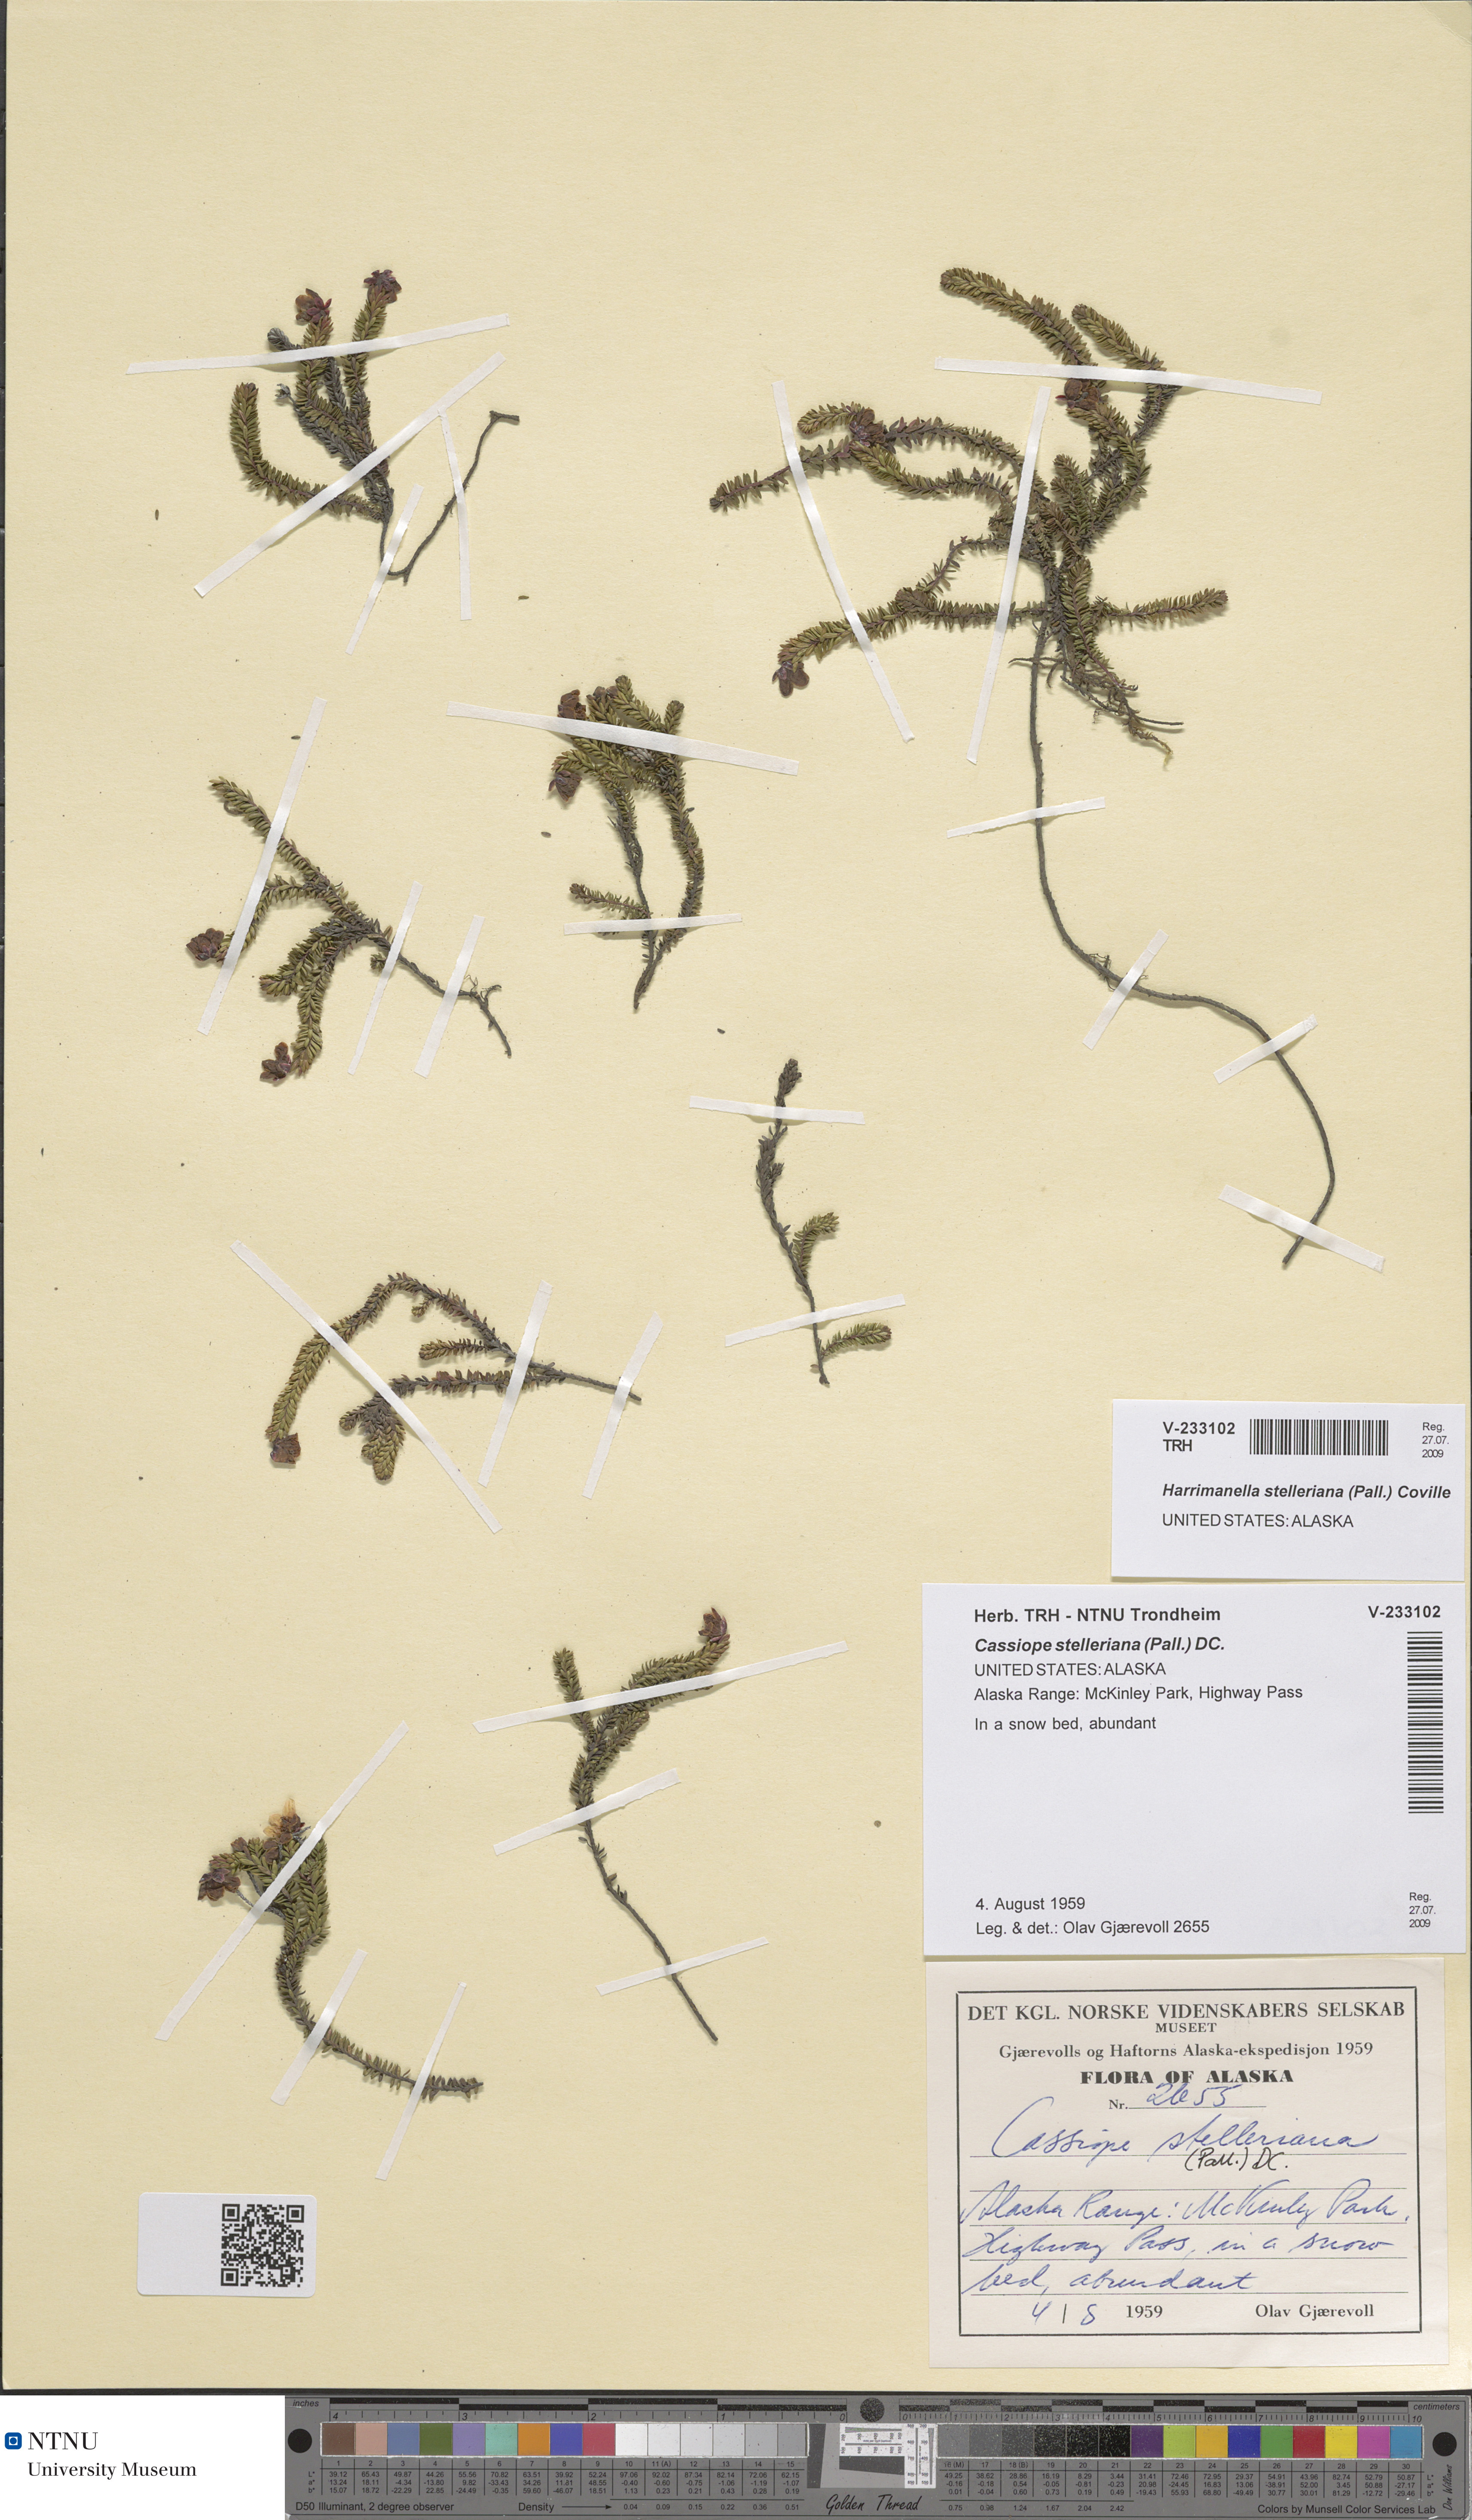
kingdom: Plantae
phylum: Tracheophyta
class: Magnoliopsida
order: Ericales
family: Ericaceae
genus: Harrimanella
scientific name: Harrimanella stelleriana
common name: Alaska bell heather
